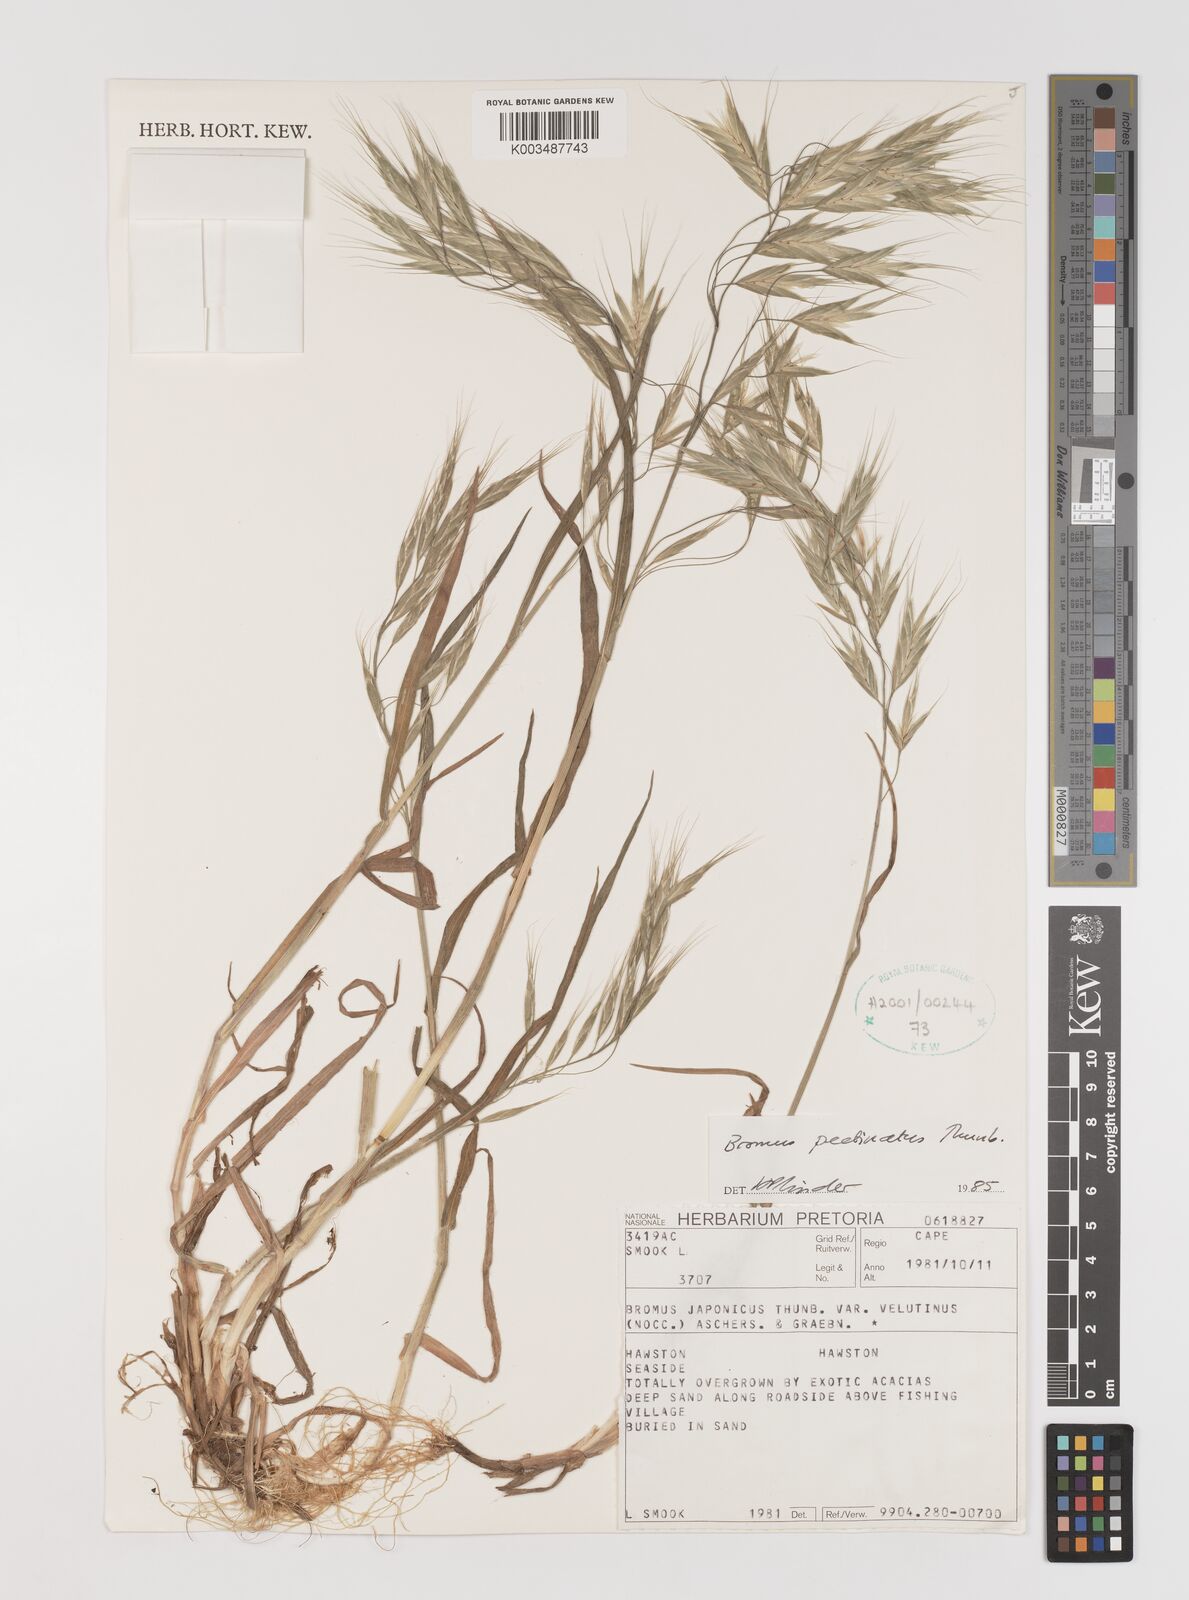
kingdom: Plantae
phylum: Tracheophyta
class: Liliopsida
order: Poales
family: Poaceae
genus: Bromus
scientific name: Bromus pectinatus
